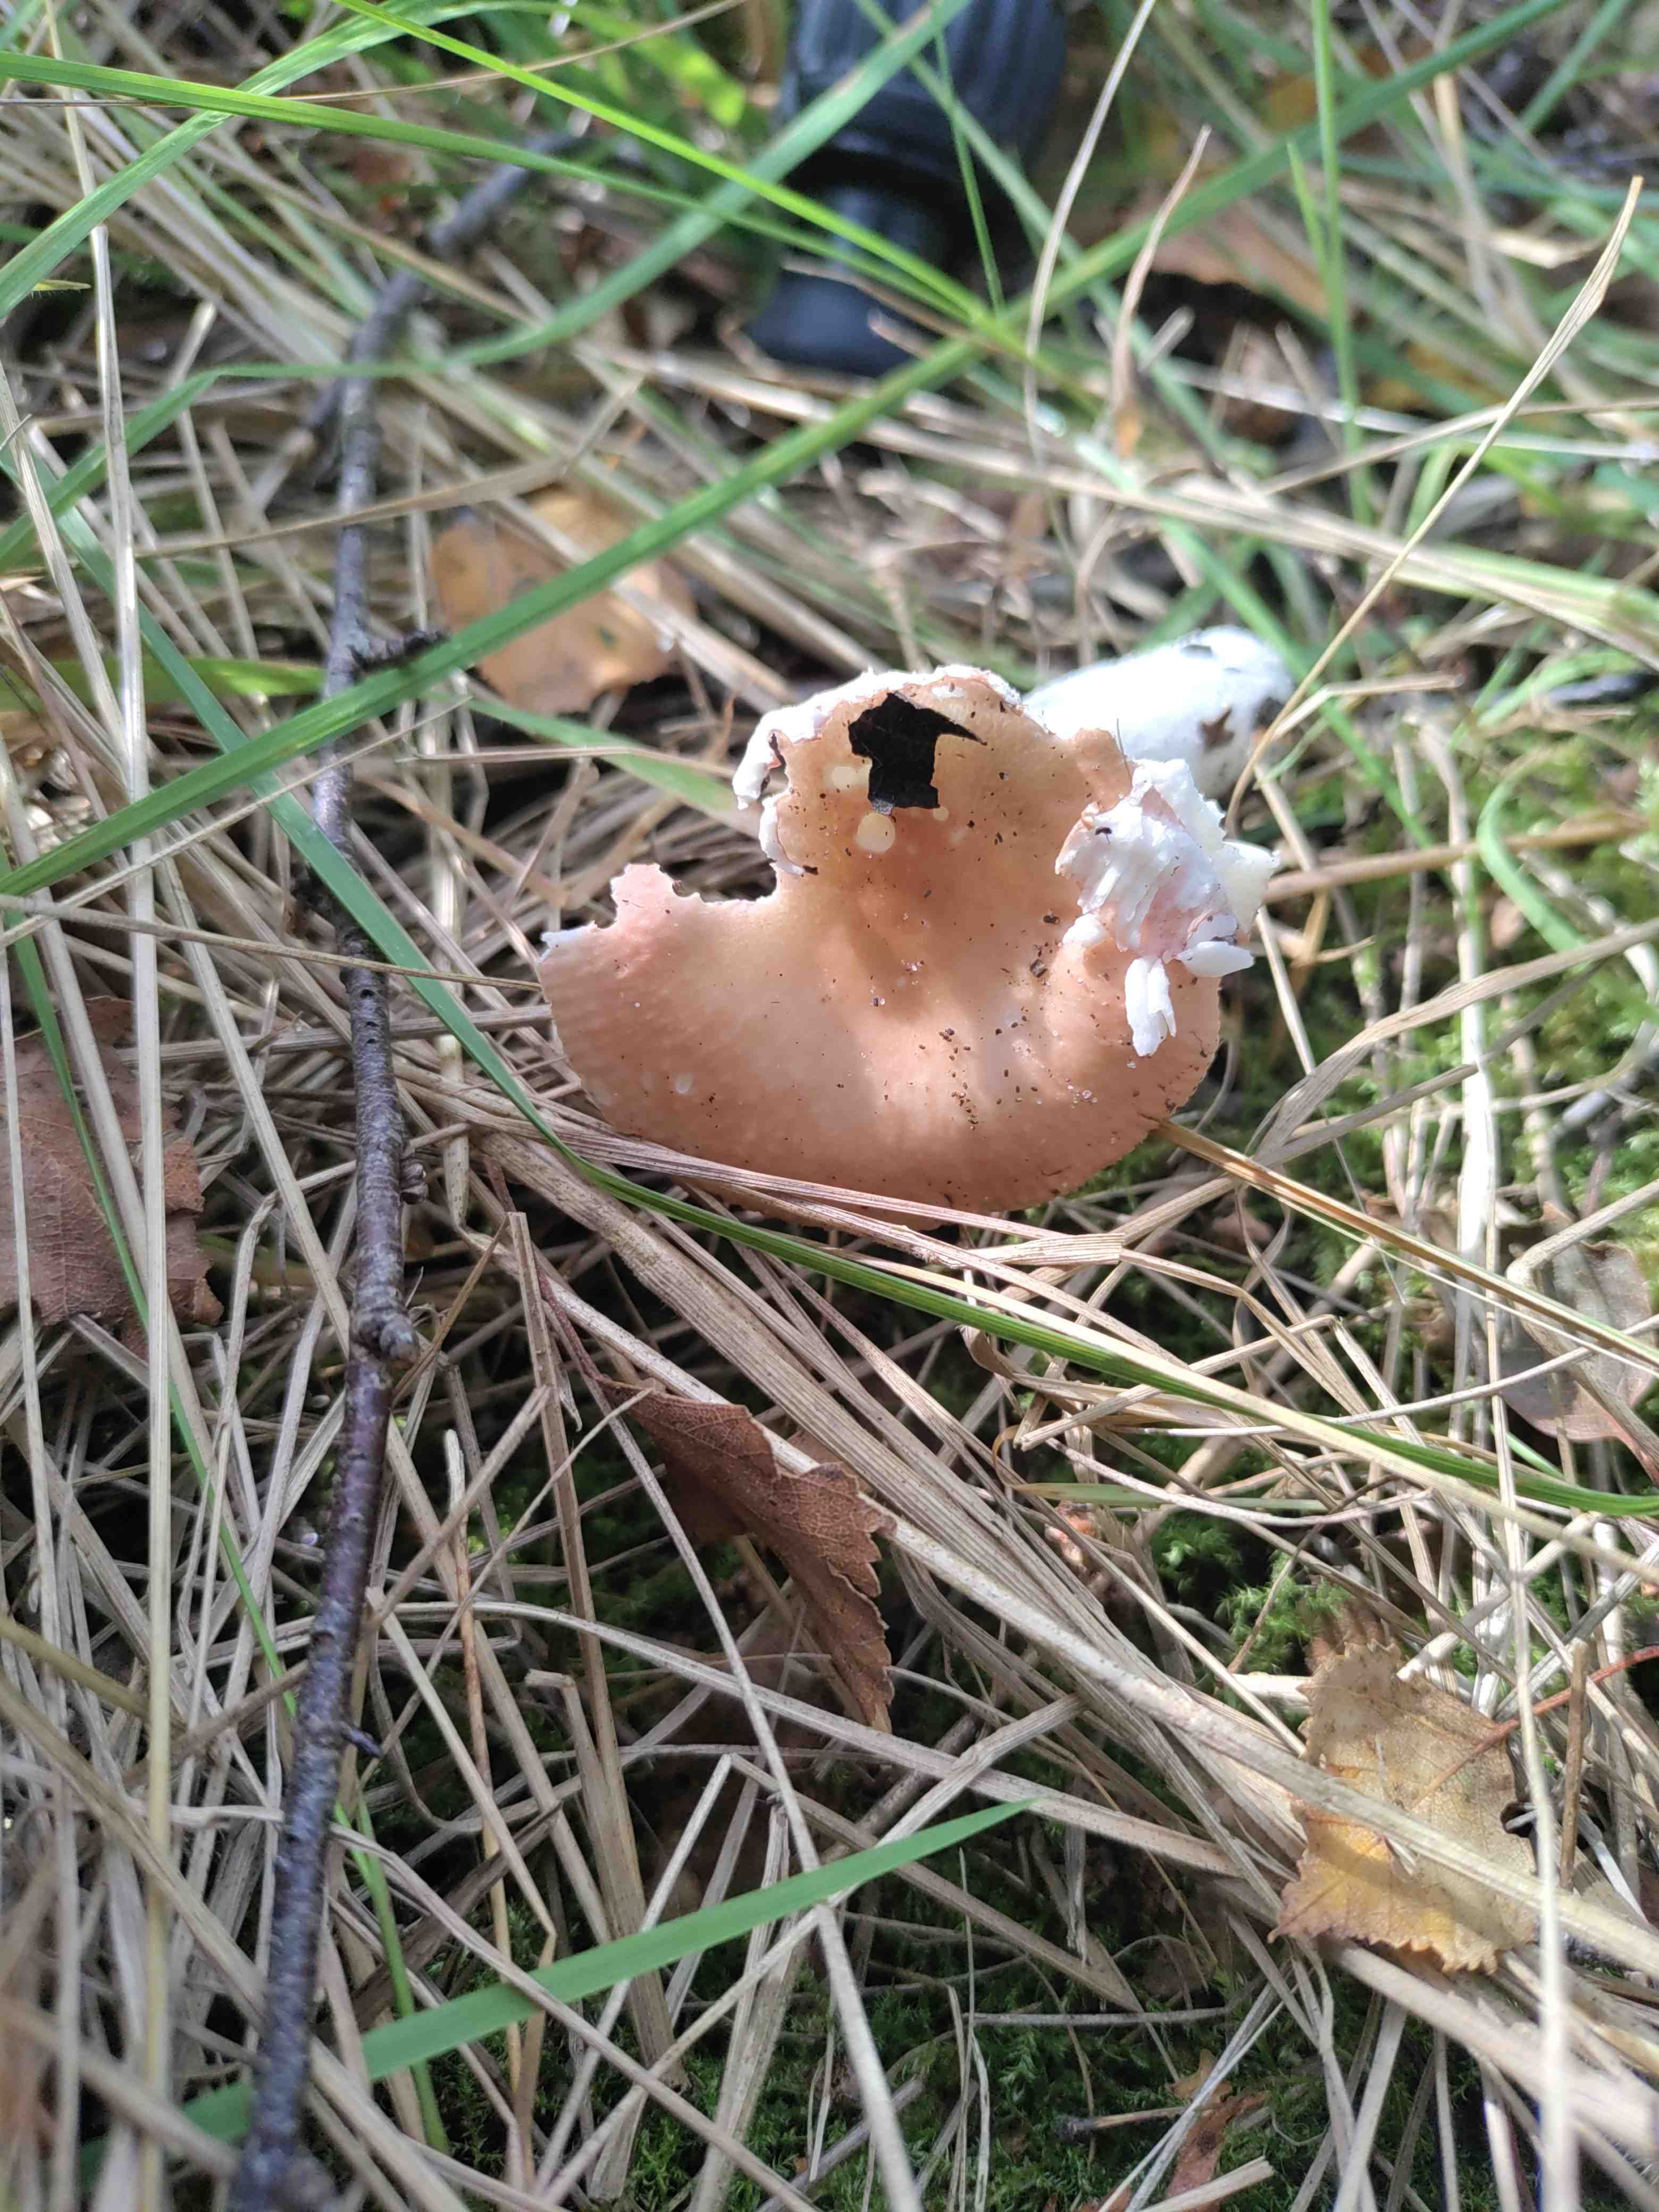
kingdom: Fungi
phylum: Basidiomycota
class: Agaricomycetes
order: Russulales
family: Russulaceae
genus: Russula
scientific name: Russula nitida
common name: året skørhat
